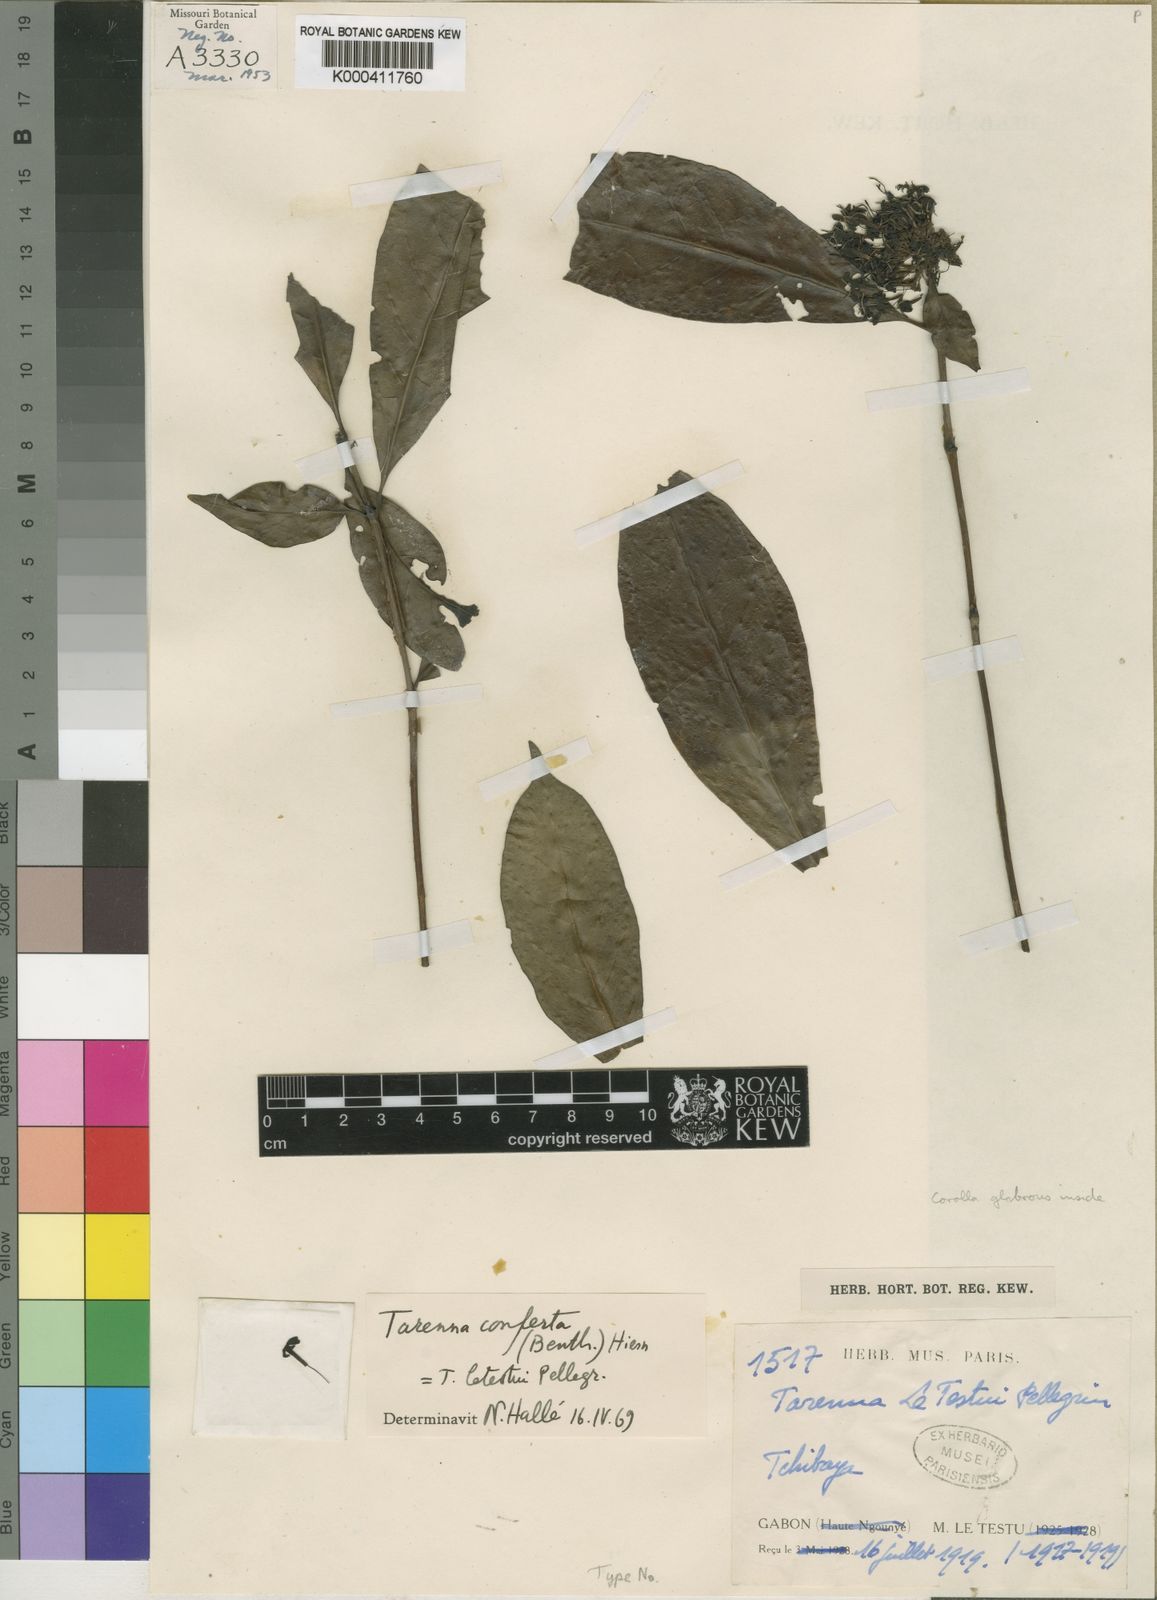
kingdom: Plantae
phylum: Tracheophyta
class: Magnoliopsida
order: Gentianales
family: Rubiaceae
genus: Tarenna
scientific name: Tarenna conferta
